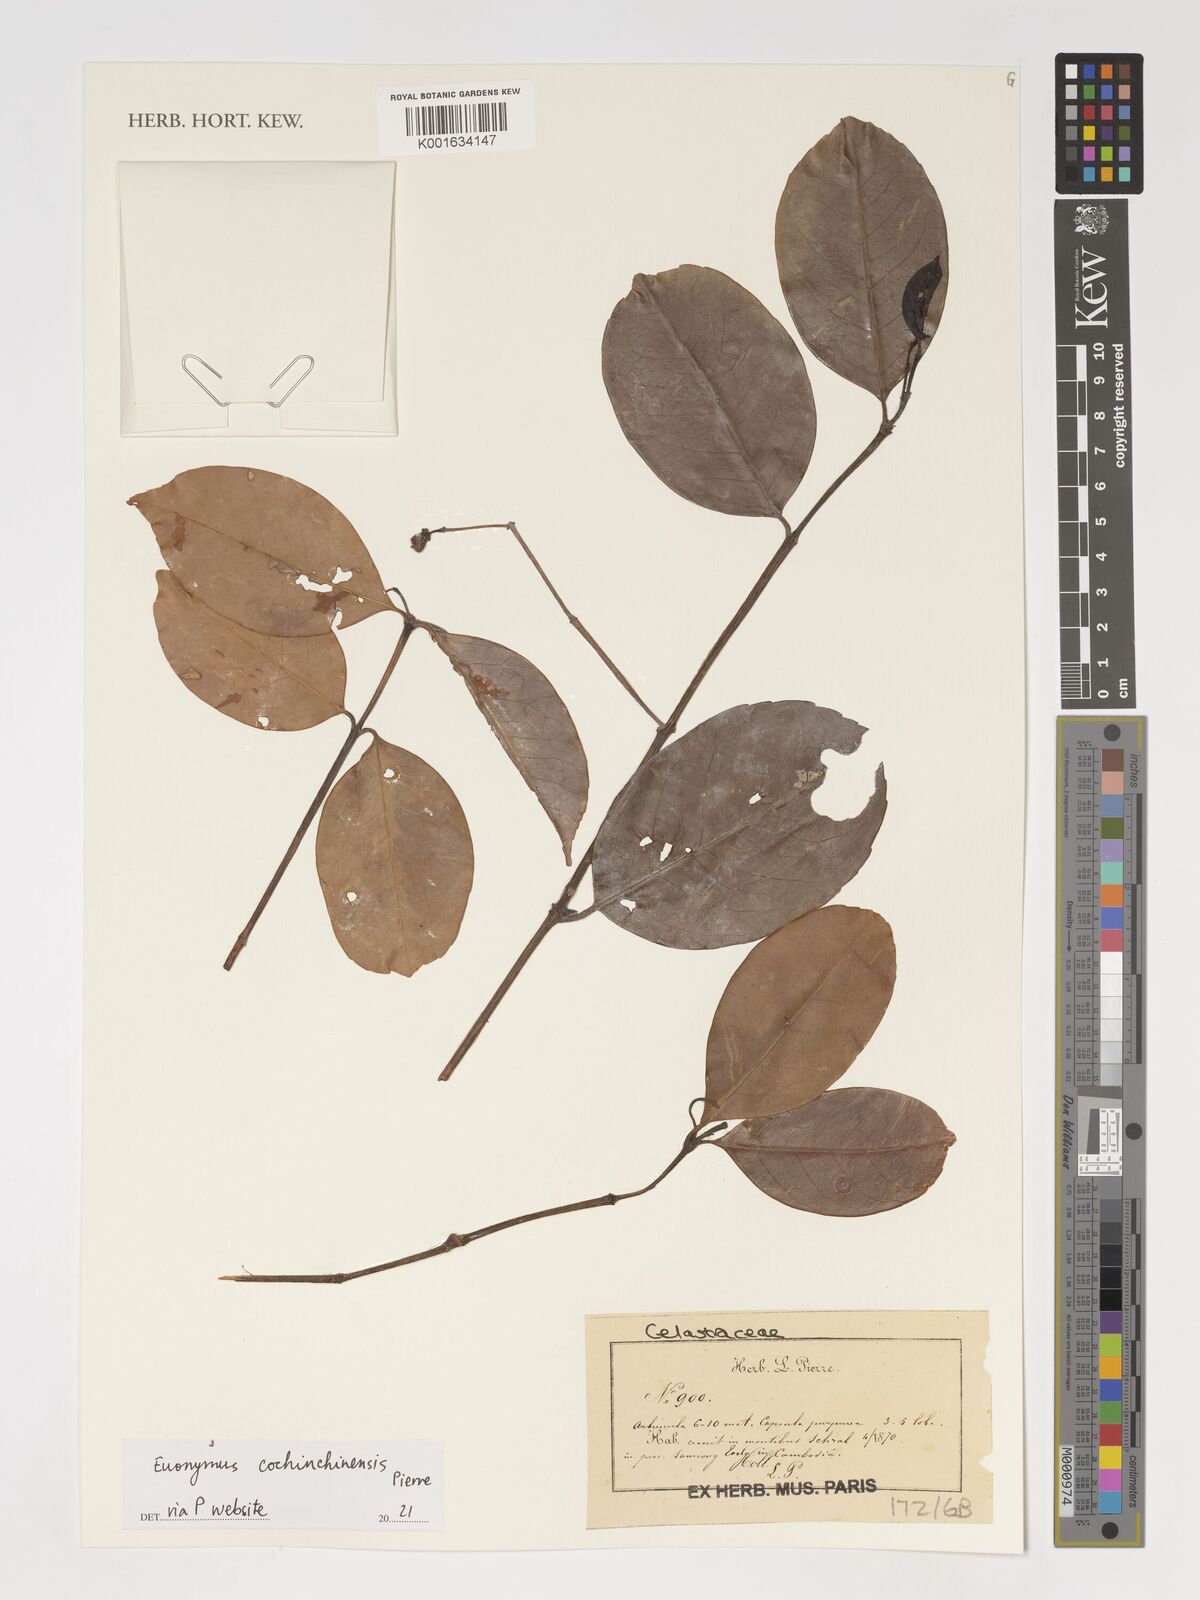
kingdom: Plantae
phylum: Tracheophyta
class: Magnoliopsida
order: Celastrales
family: Celastraceae
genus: Euonymus
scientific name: Euonymus cochinchinensis
